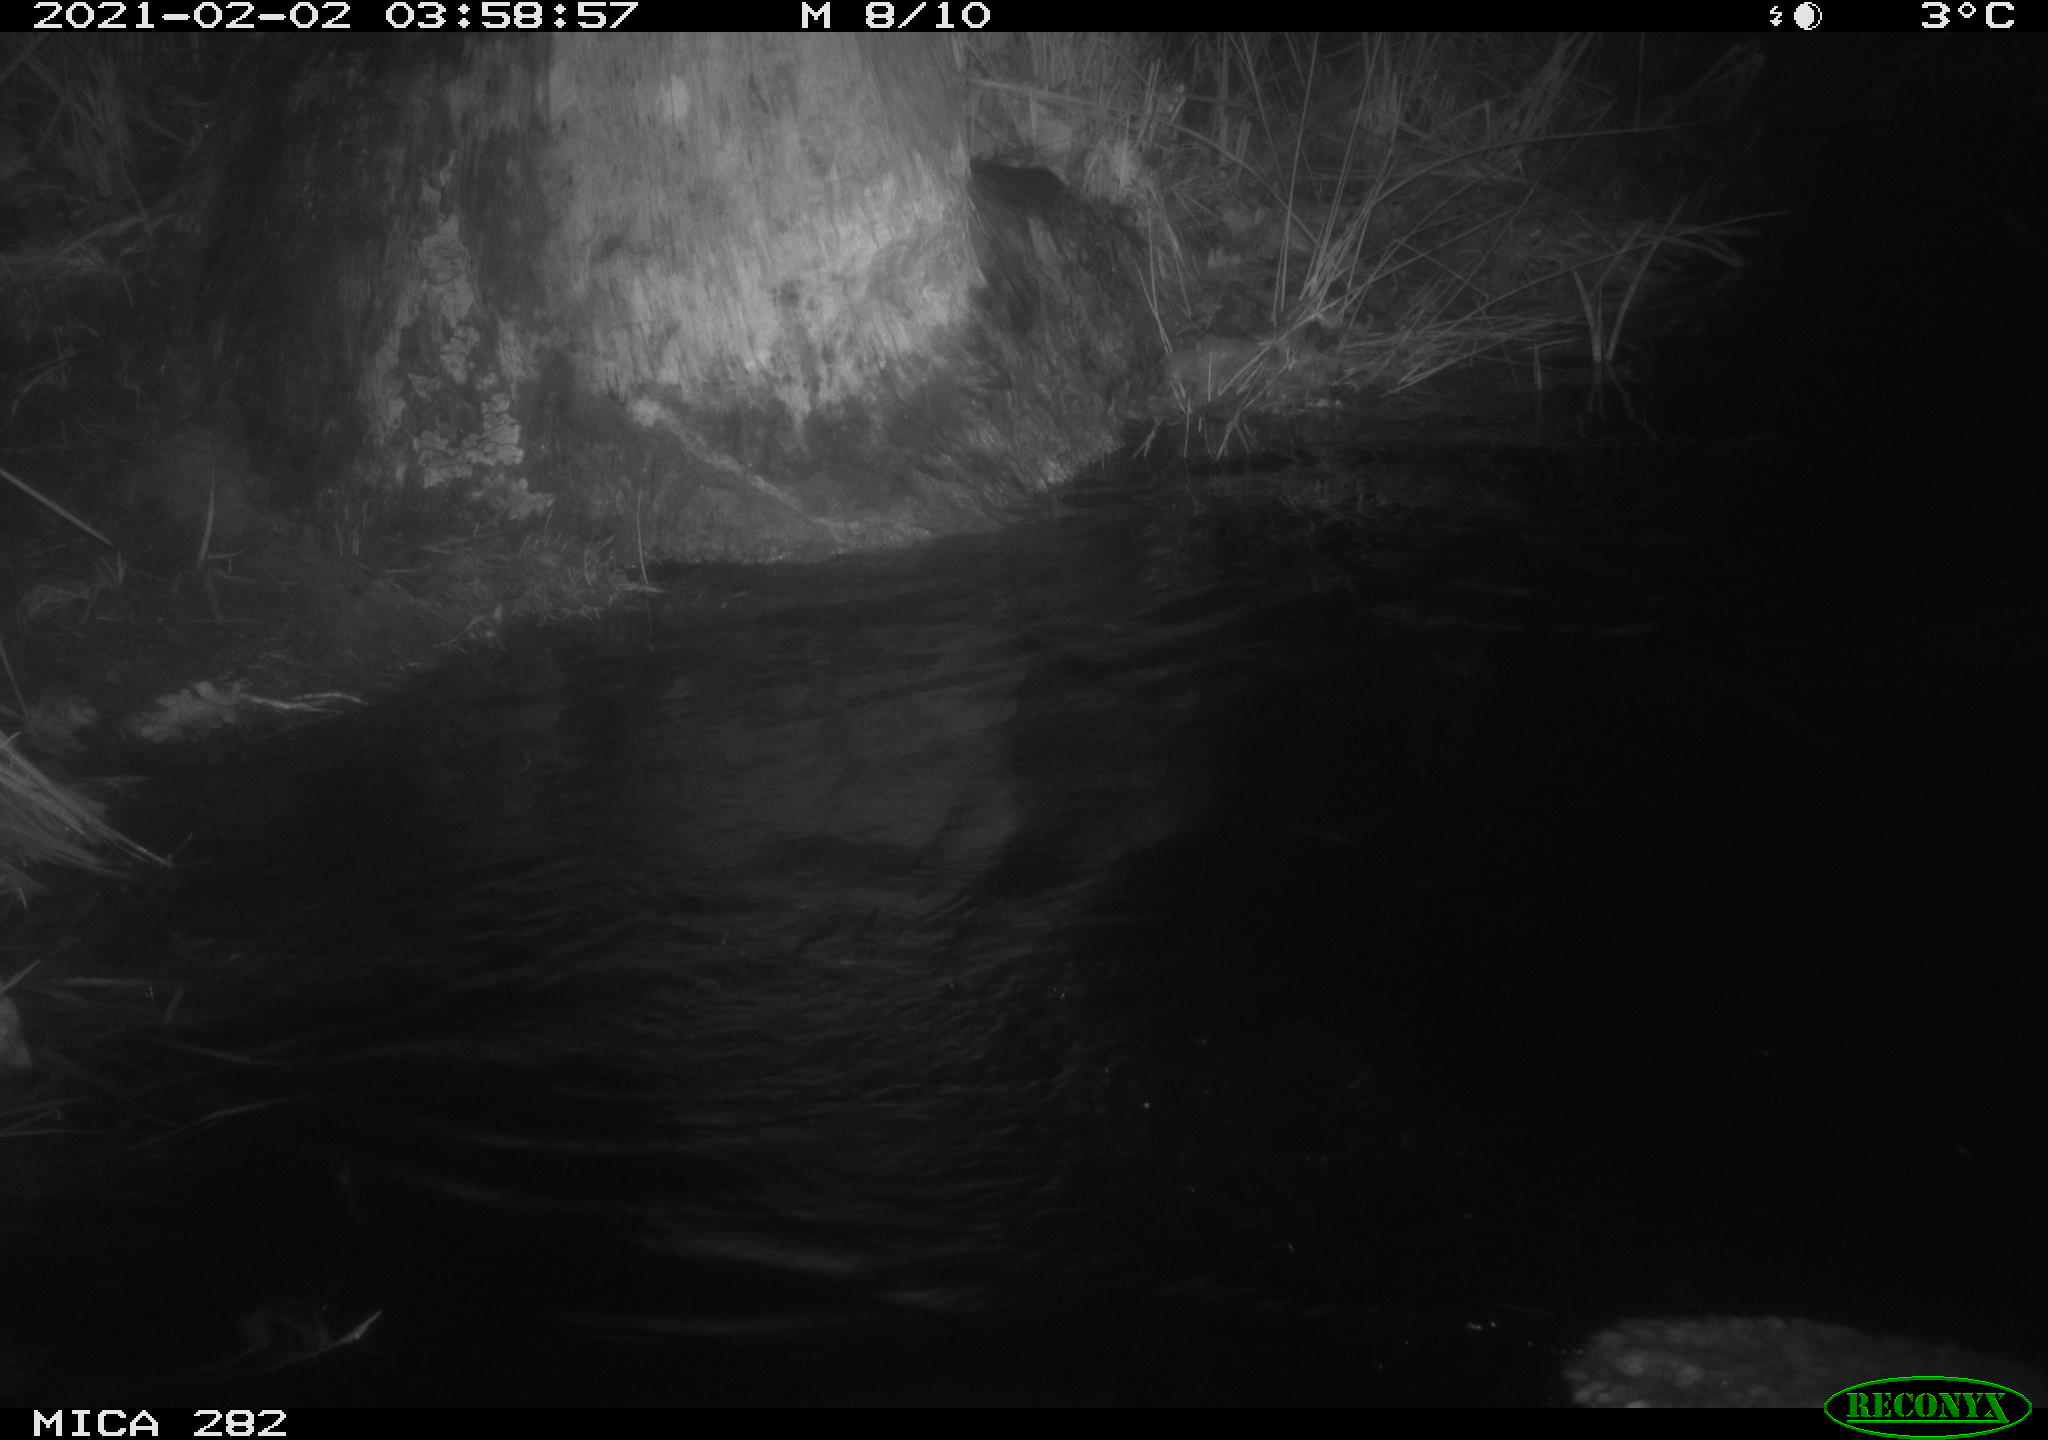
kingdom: Animalia
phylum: Chordata
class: Mammalia
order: Rodentia
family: Castoridae
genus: Castor
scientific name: Castor fiber
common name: Eurasian beaver
